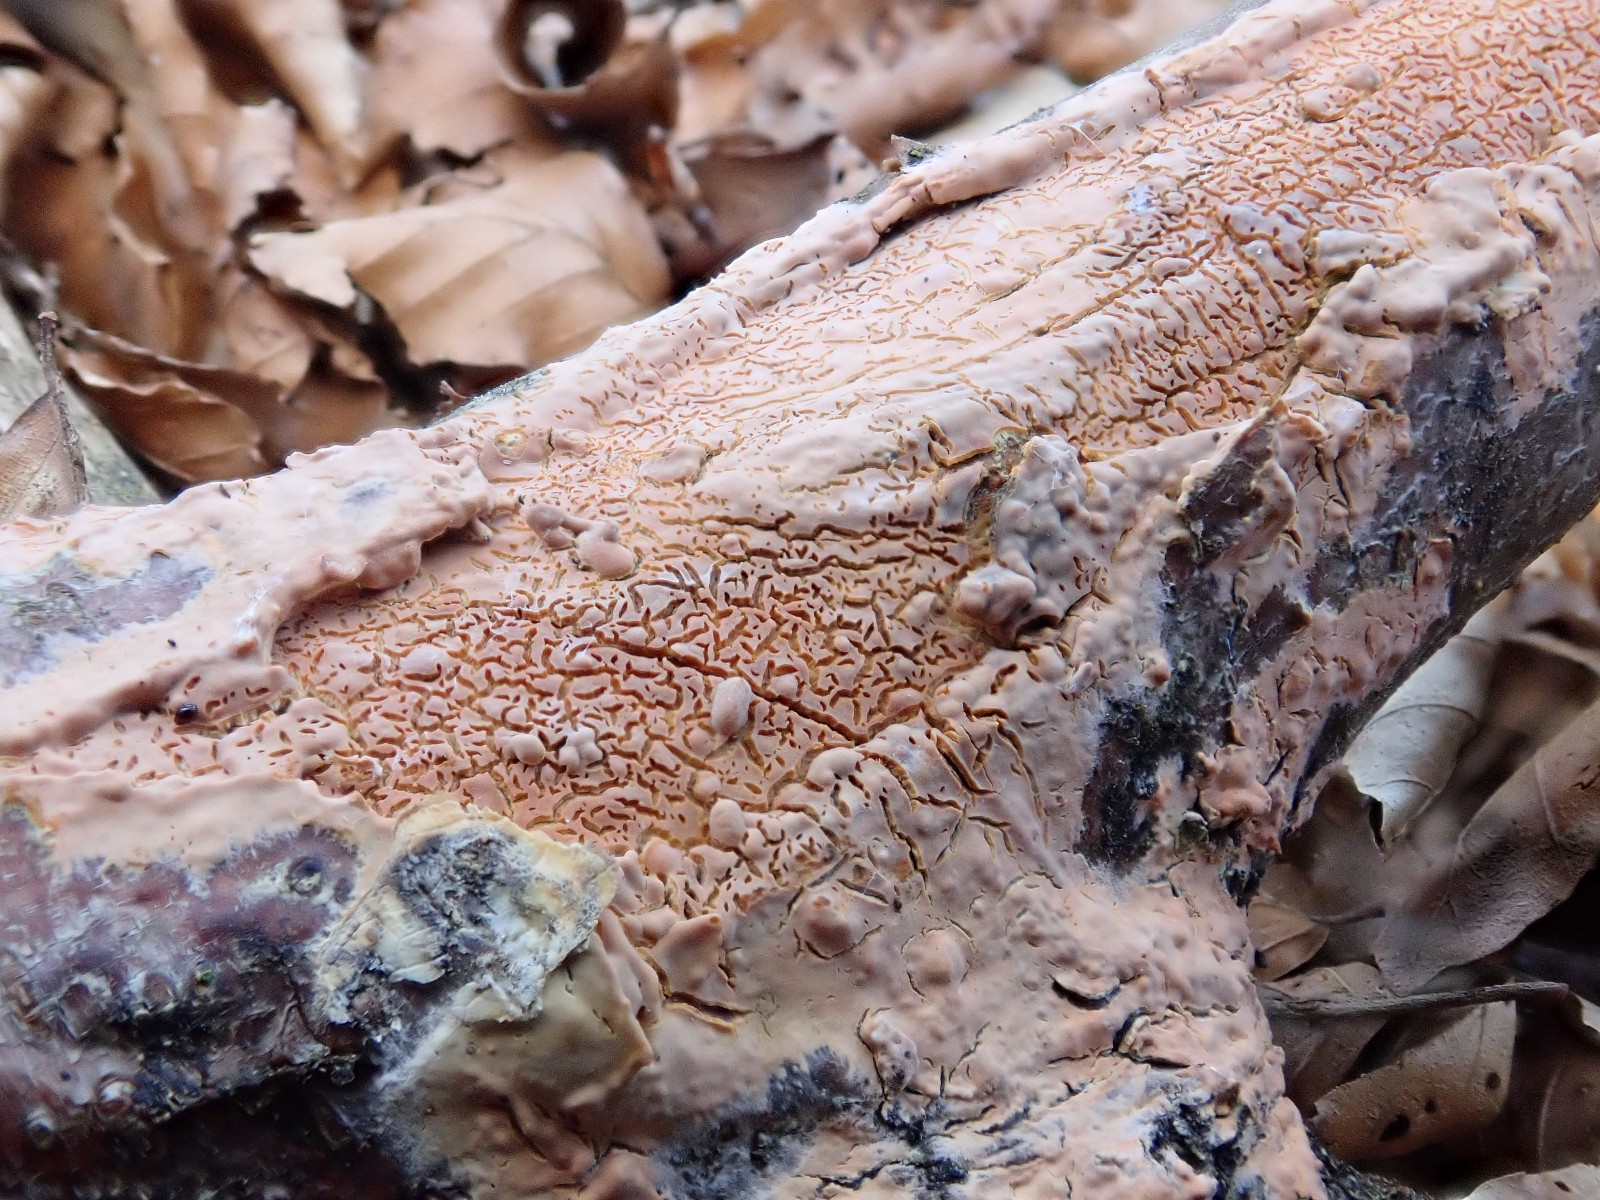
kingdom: Fungi
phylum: Basidiomycota
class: Agaricomycetes
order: Russulales
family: Peniophoraceae
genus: Peniophora
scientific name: Peniophora incarnata
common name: laksefarvet voksskind
